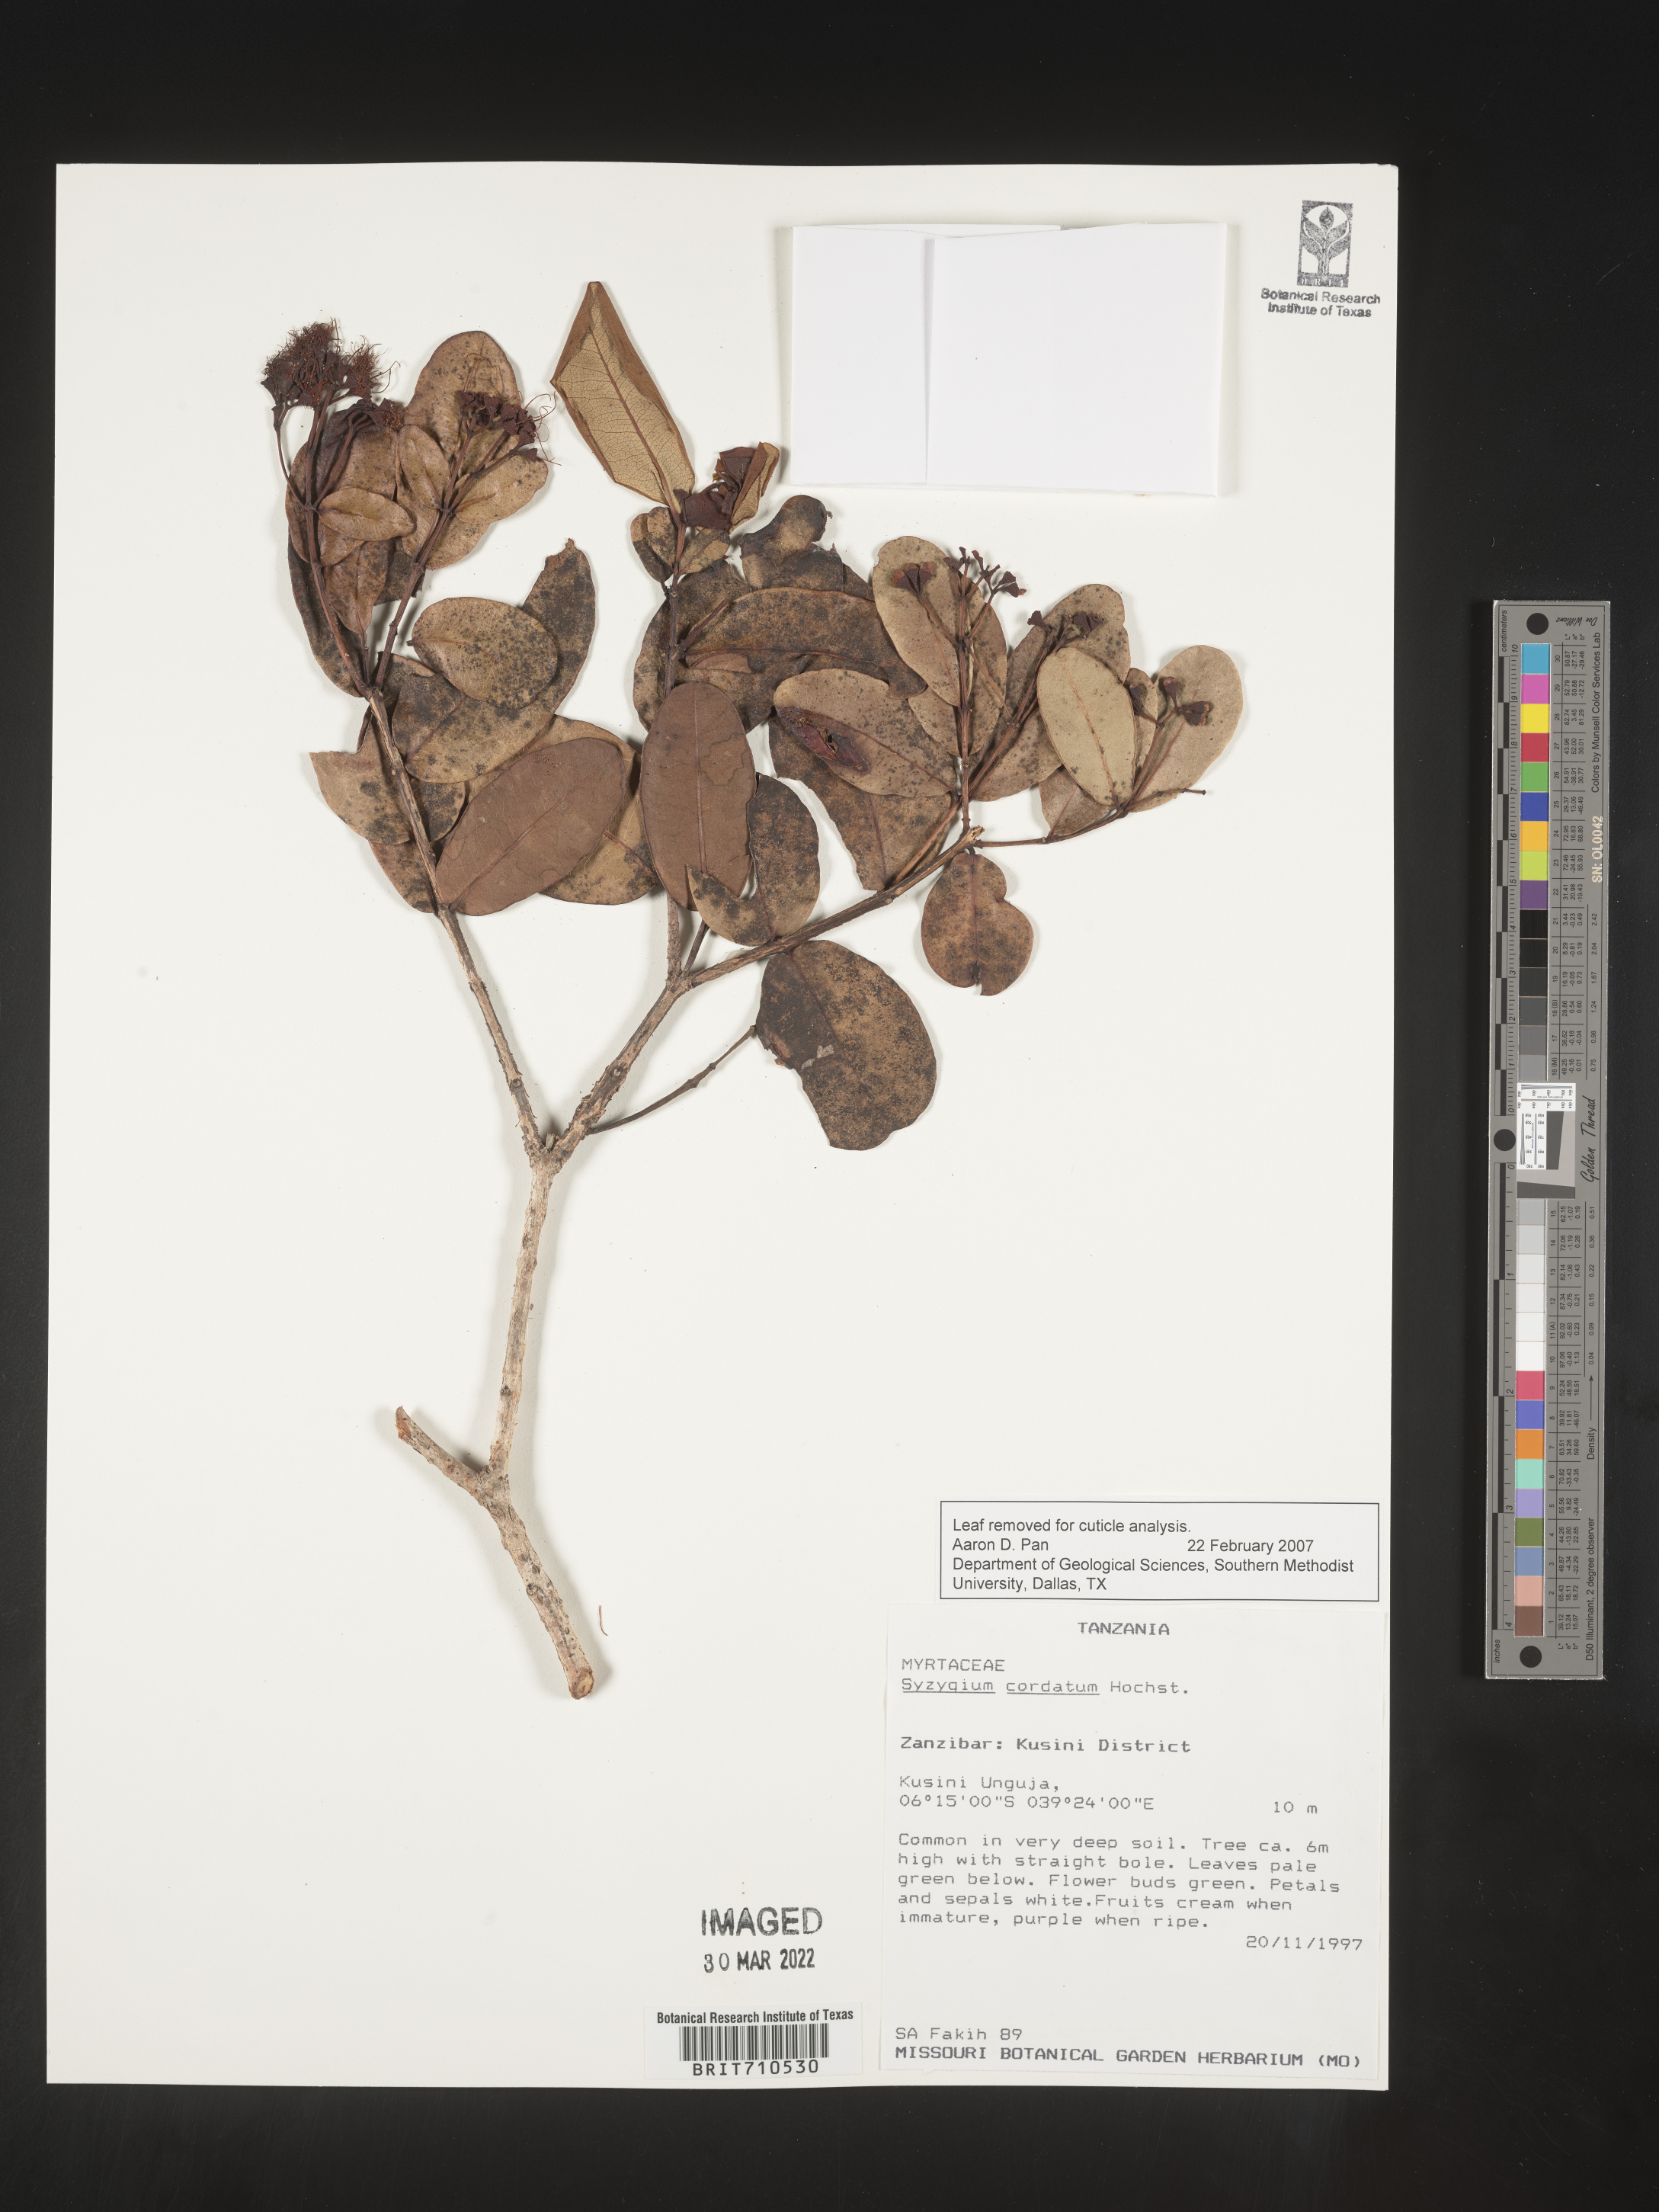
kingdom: Plantae
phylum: Tracheophyta
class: Magnoliopsida
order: Myrtales
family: Myrtaceae
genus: Syzygium
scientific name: Syzygium
